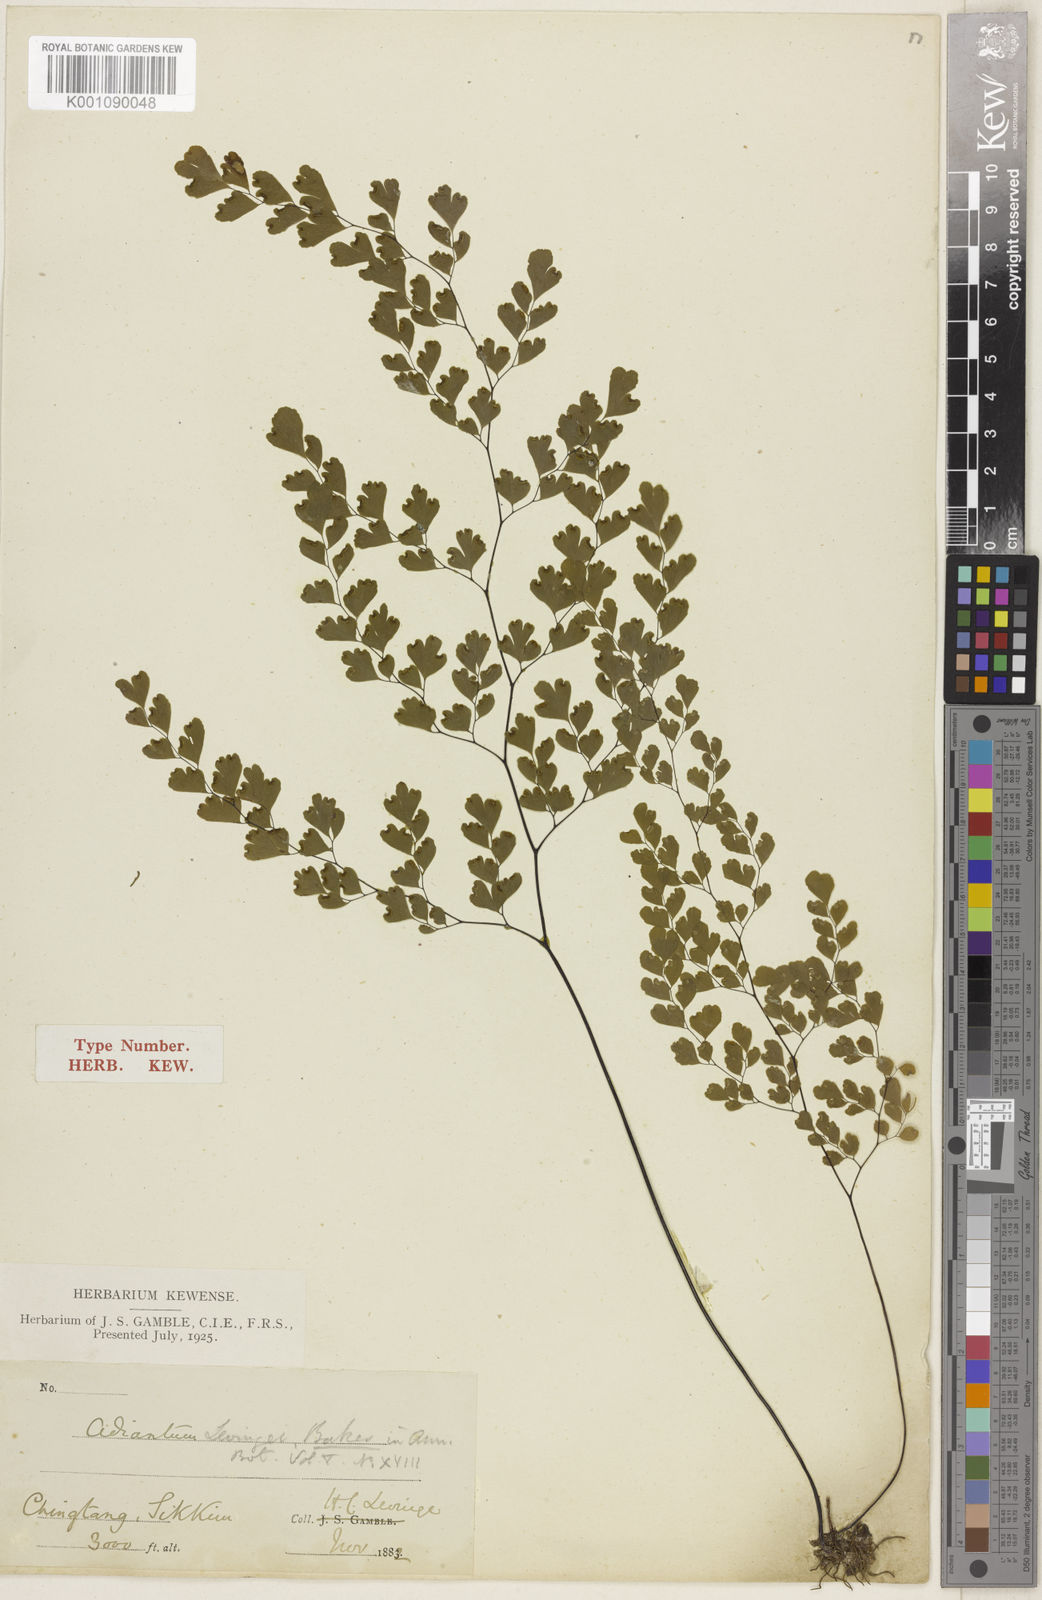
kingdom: Plantae
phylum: Tracheophyta
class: Polypodiopsida
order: Polypodiales
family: Pteridaceae
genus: Adiantum
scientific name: Adiantum wattii
